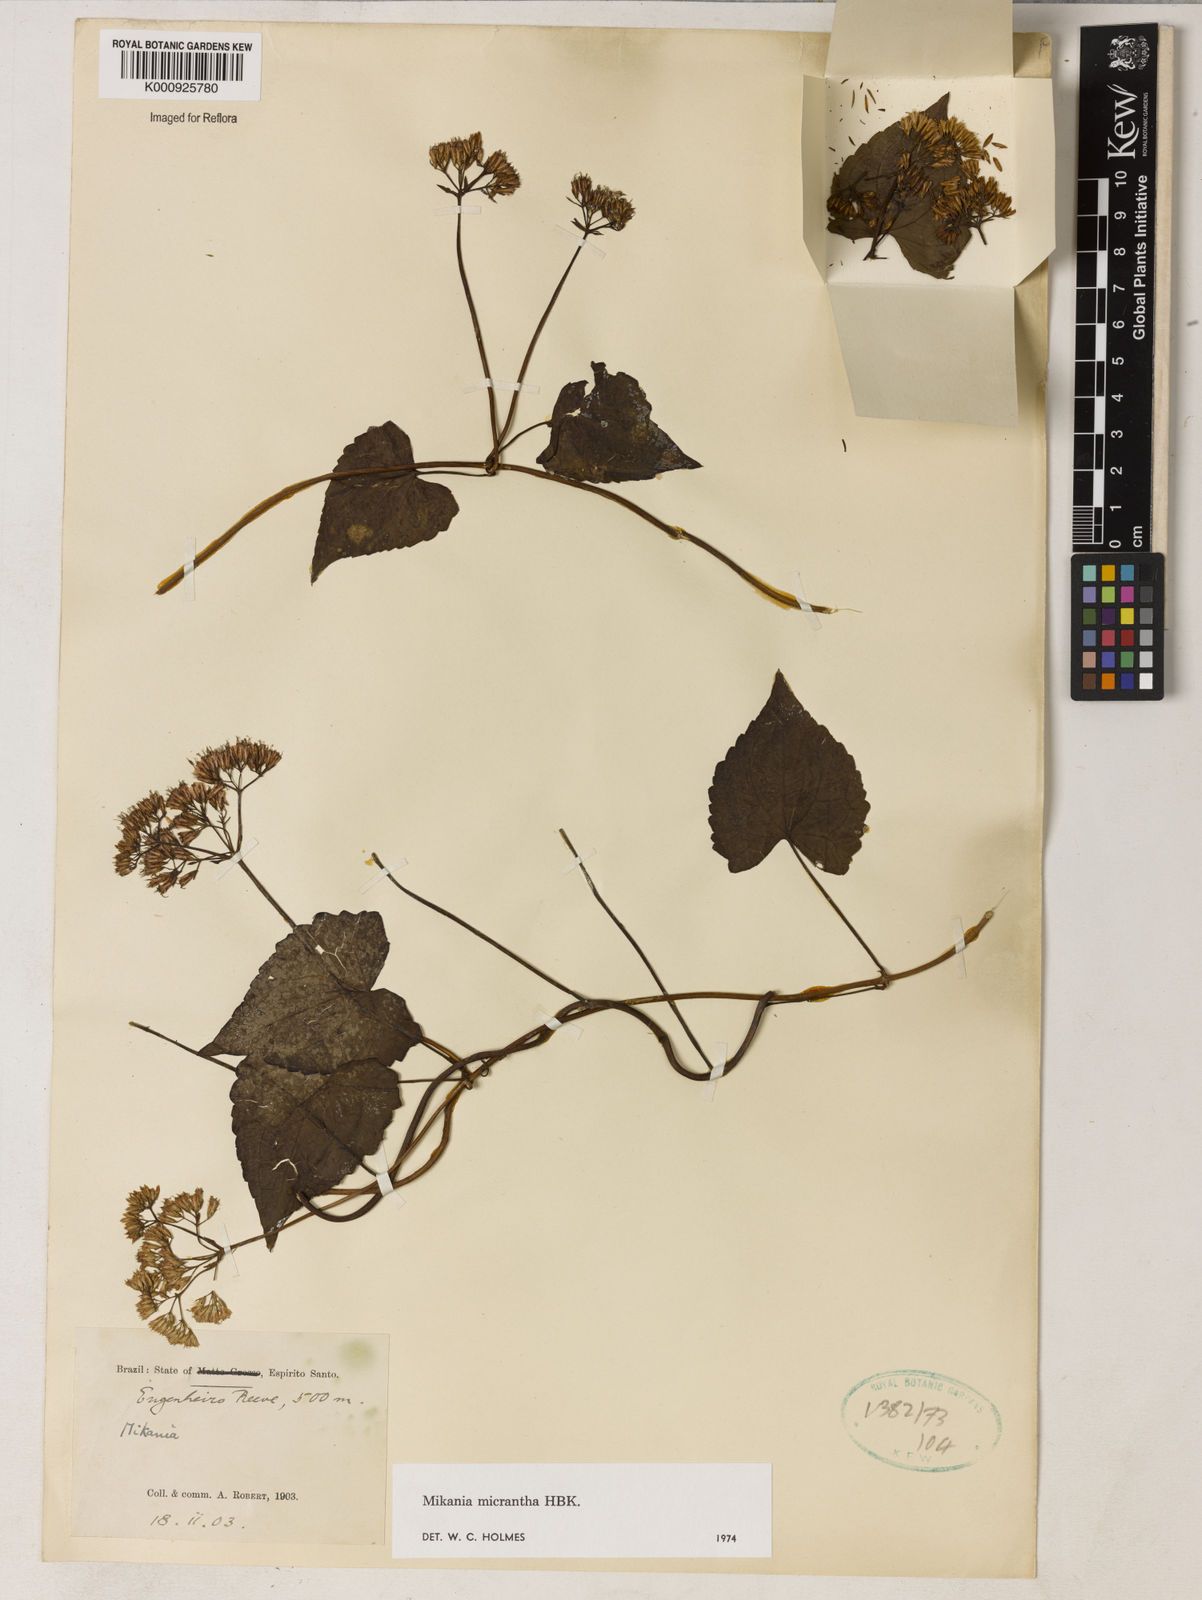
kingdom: Plantae
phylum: Tracheophyta
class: Magnoliopsida
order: Asterales
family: Asteraceae
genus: Mikania
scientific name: Mikania
